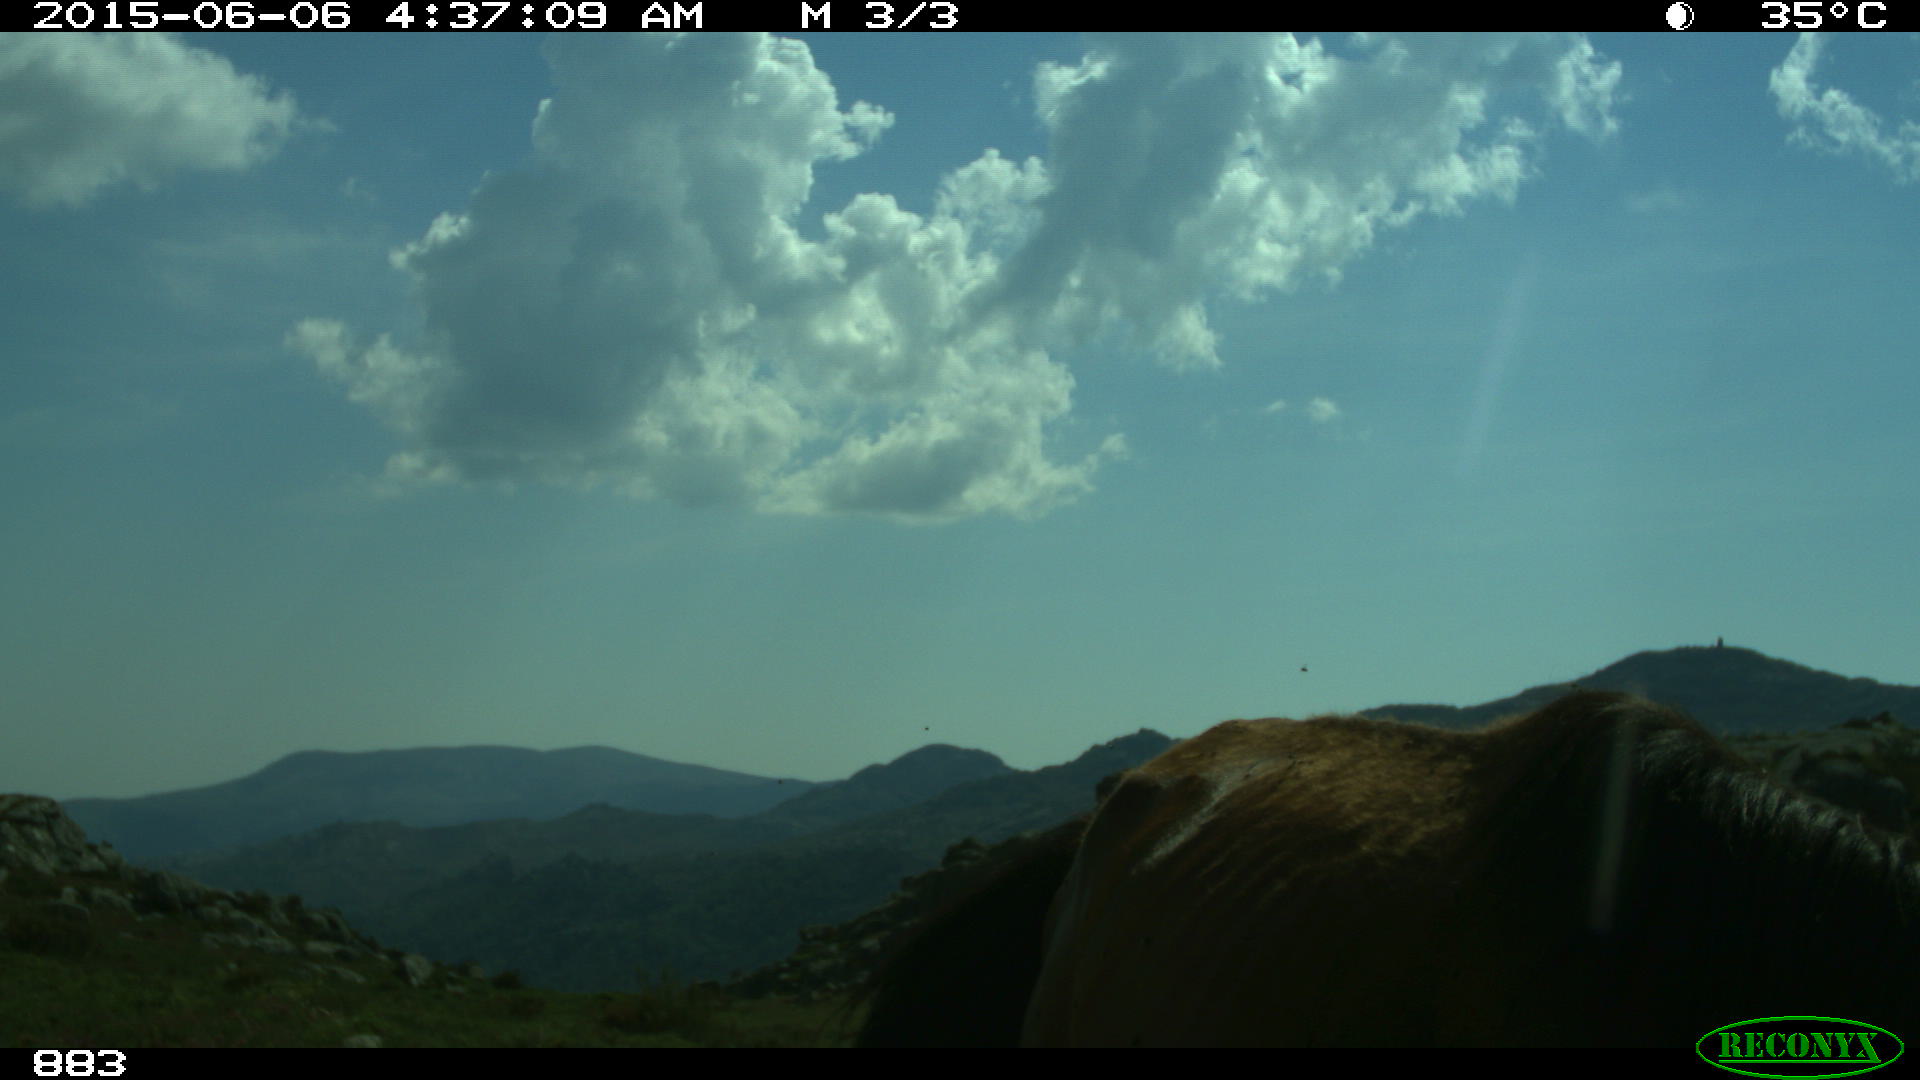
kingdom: Animalia
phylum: Chordata
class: Mammalia
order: Perissodactyla
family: Equidae
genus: Equus
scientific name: Equus caballus
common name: Horse
